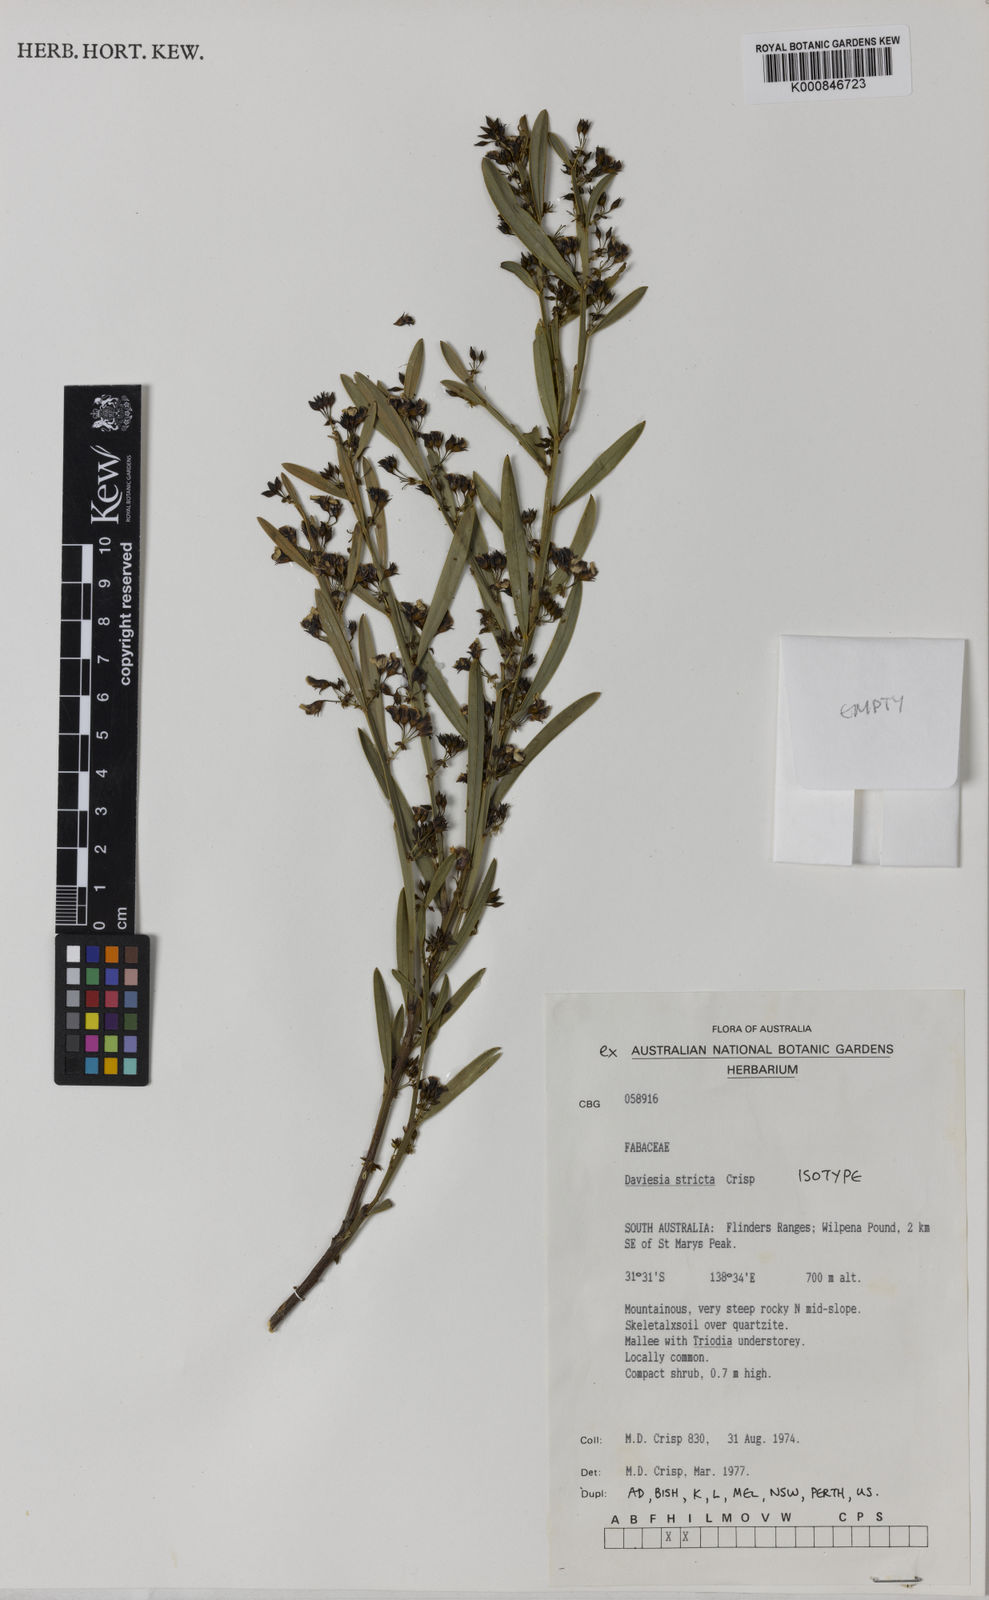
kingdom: Plantae
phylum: Tracheophyta
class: Magnoliopsida
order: Fabales
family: Fabaceae
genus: Daviesia
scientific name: Daviesia stricta
